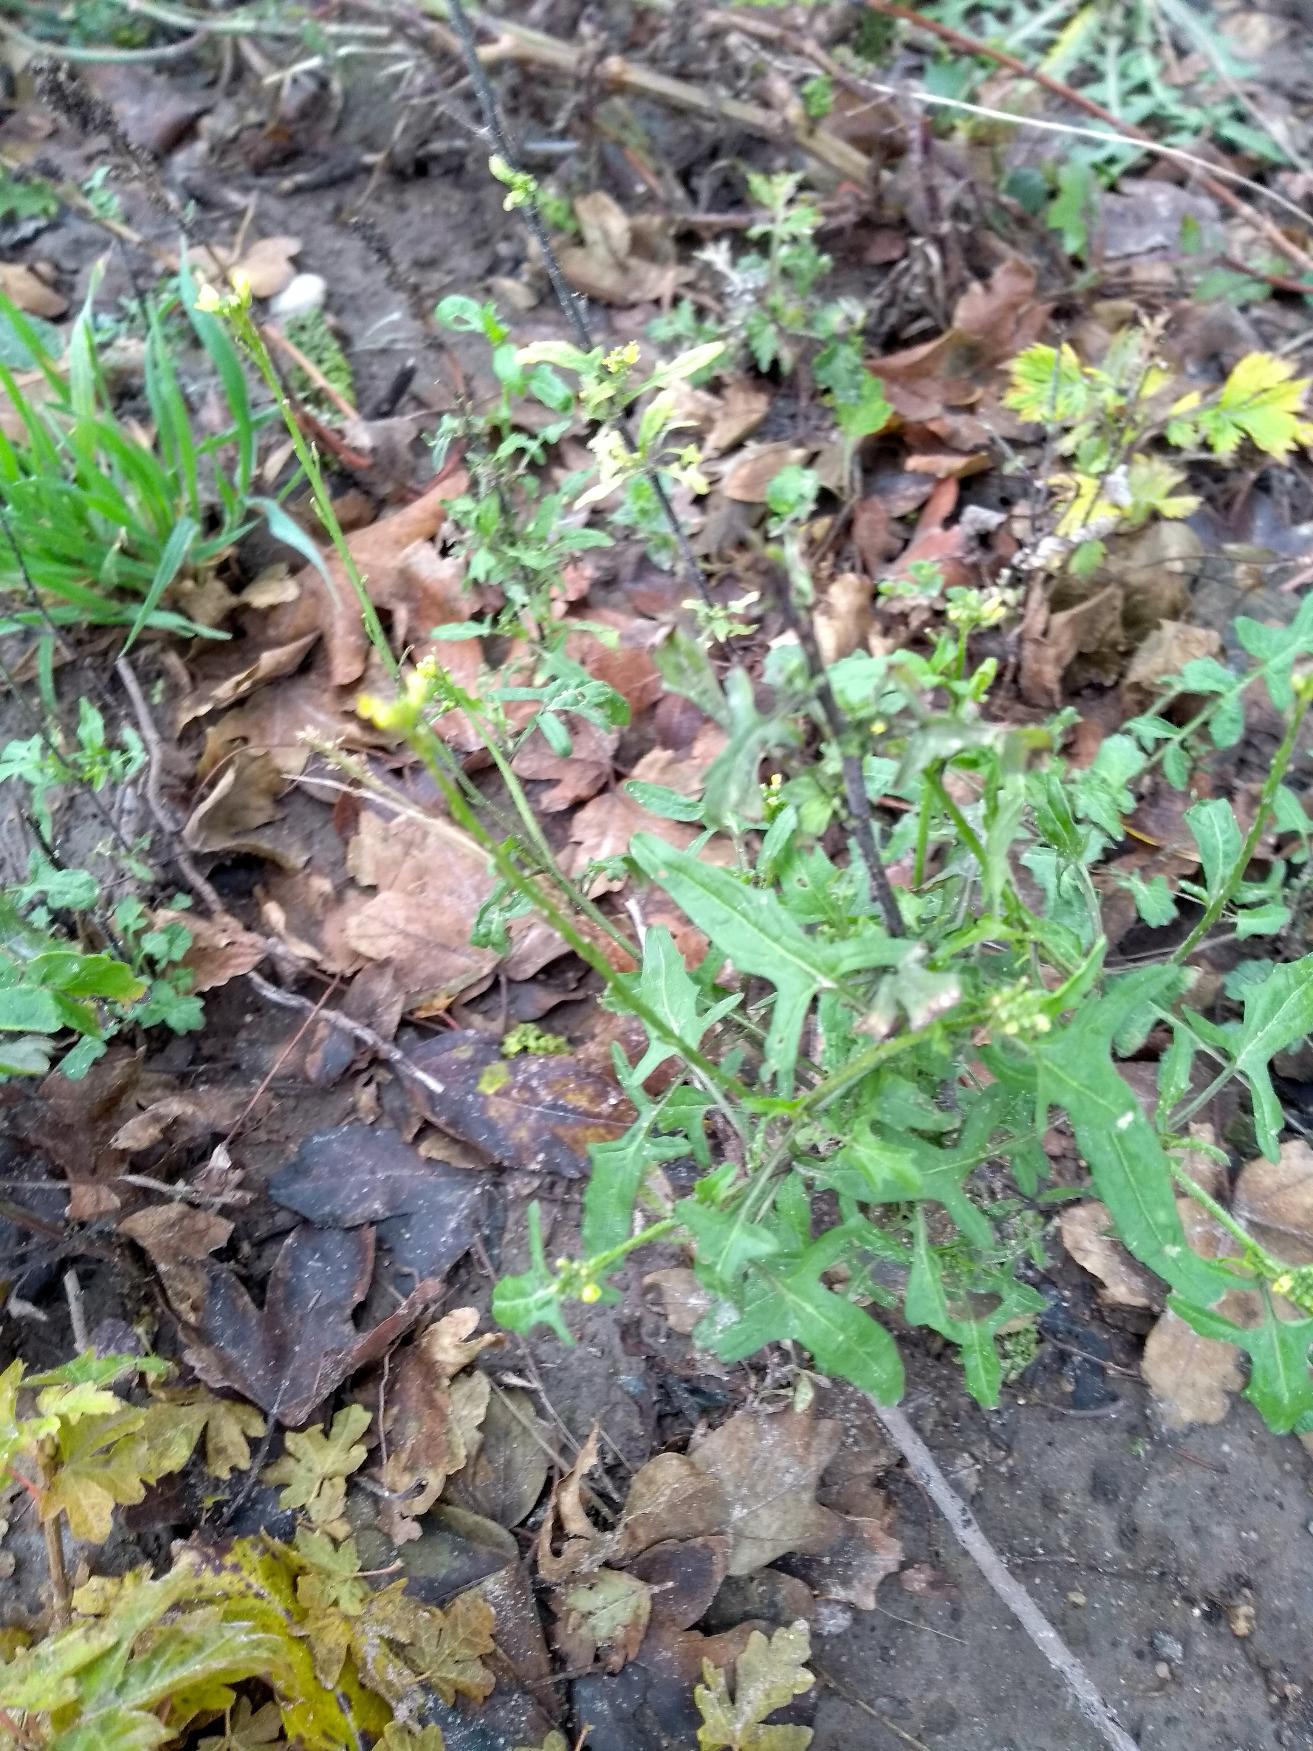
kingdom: Plantae
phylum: Tracheophyta
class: Magnoliopsida
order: Brassicales
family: Brassicaceae
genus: Sisymbrium
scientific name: Sisymbrium officinale
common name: Rank vejsennep
